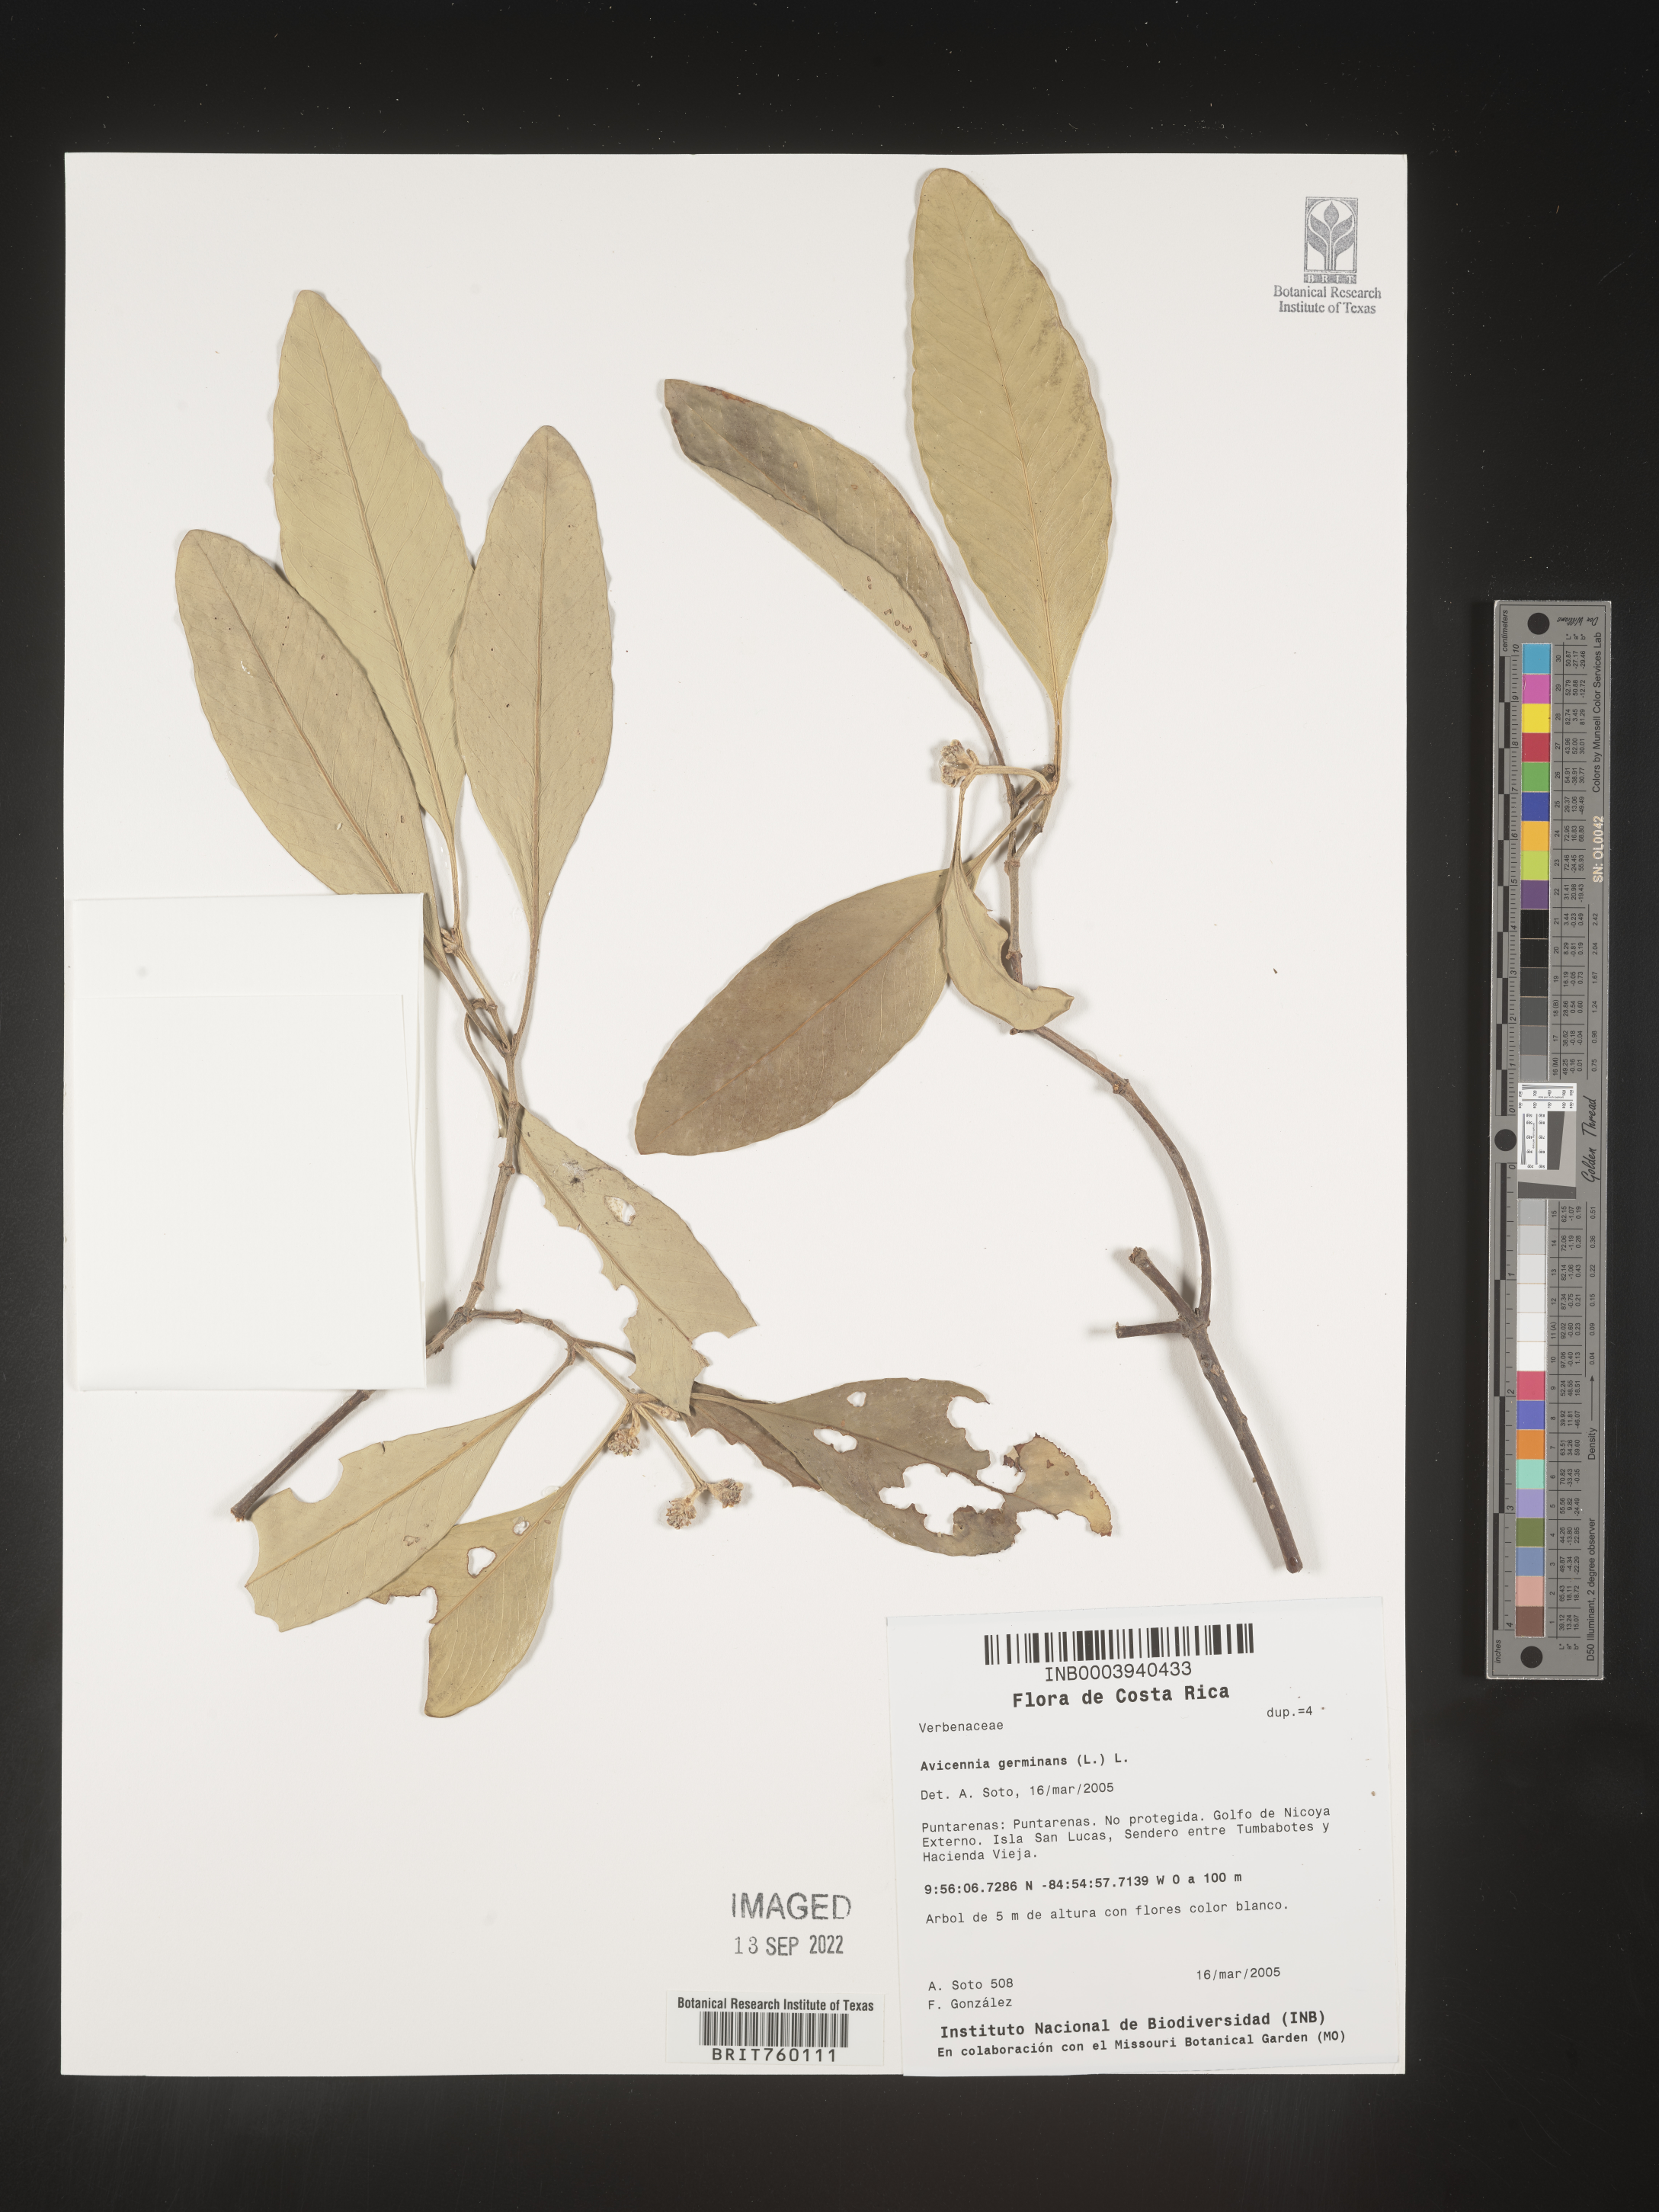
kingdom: Plantae
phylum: Tracheophyta
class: Magnoliopsida
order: Lamiales
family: Acanthaceae
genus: Avicennia
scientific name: Avicennia
